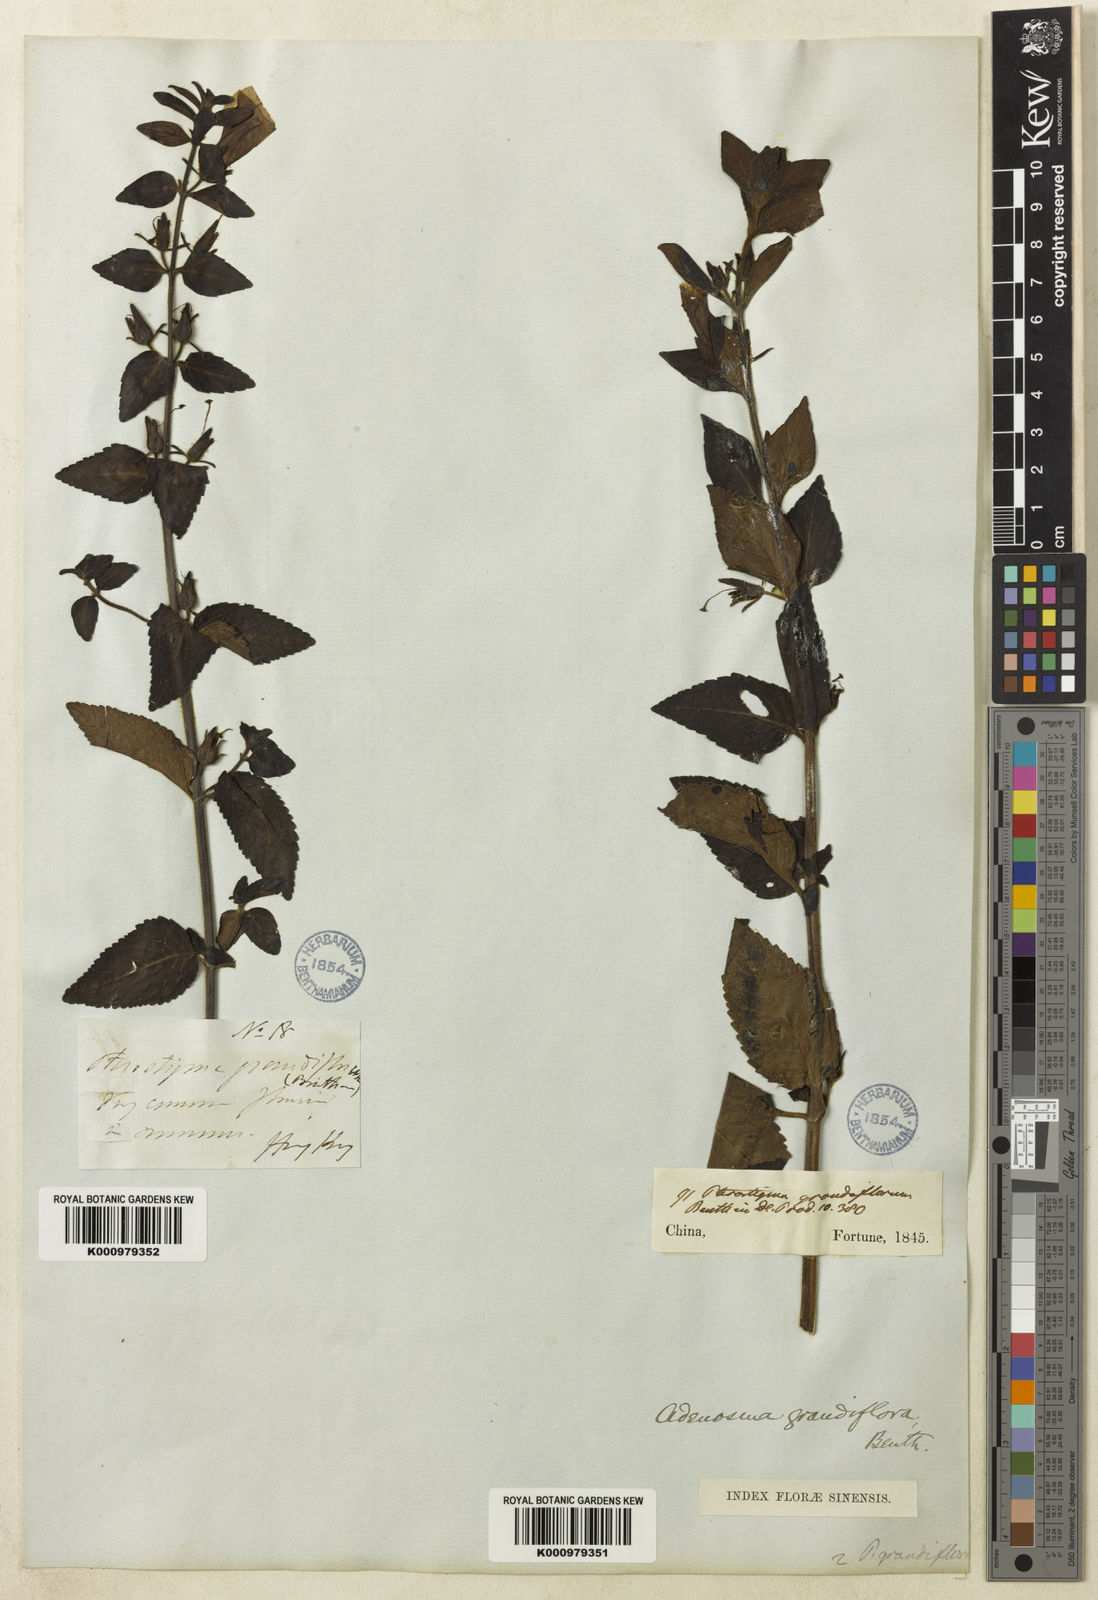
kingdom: Plantae
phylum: Tracheophyta
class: Magnoliopsida
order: Lamiales
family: Plantaginaceae
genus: Adenosma
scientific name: Adenosma glutinosa
